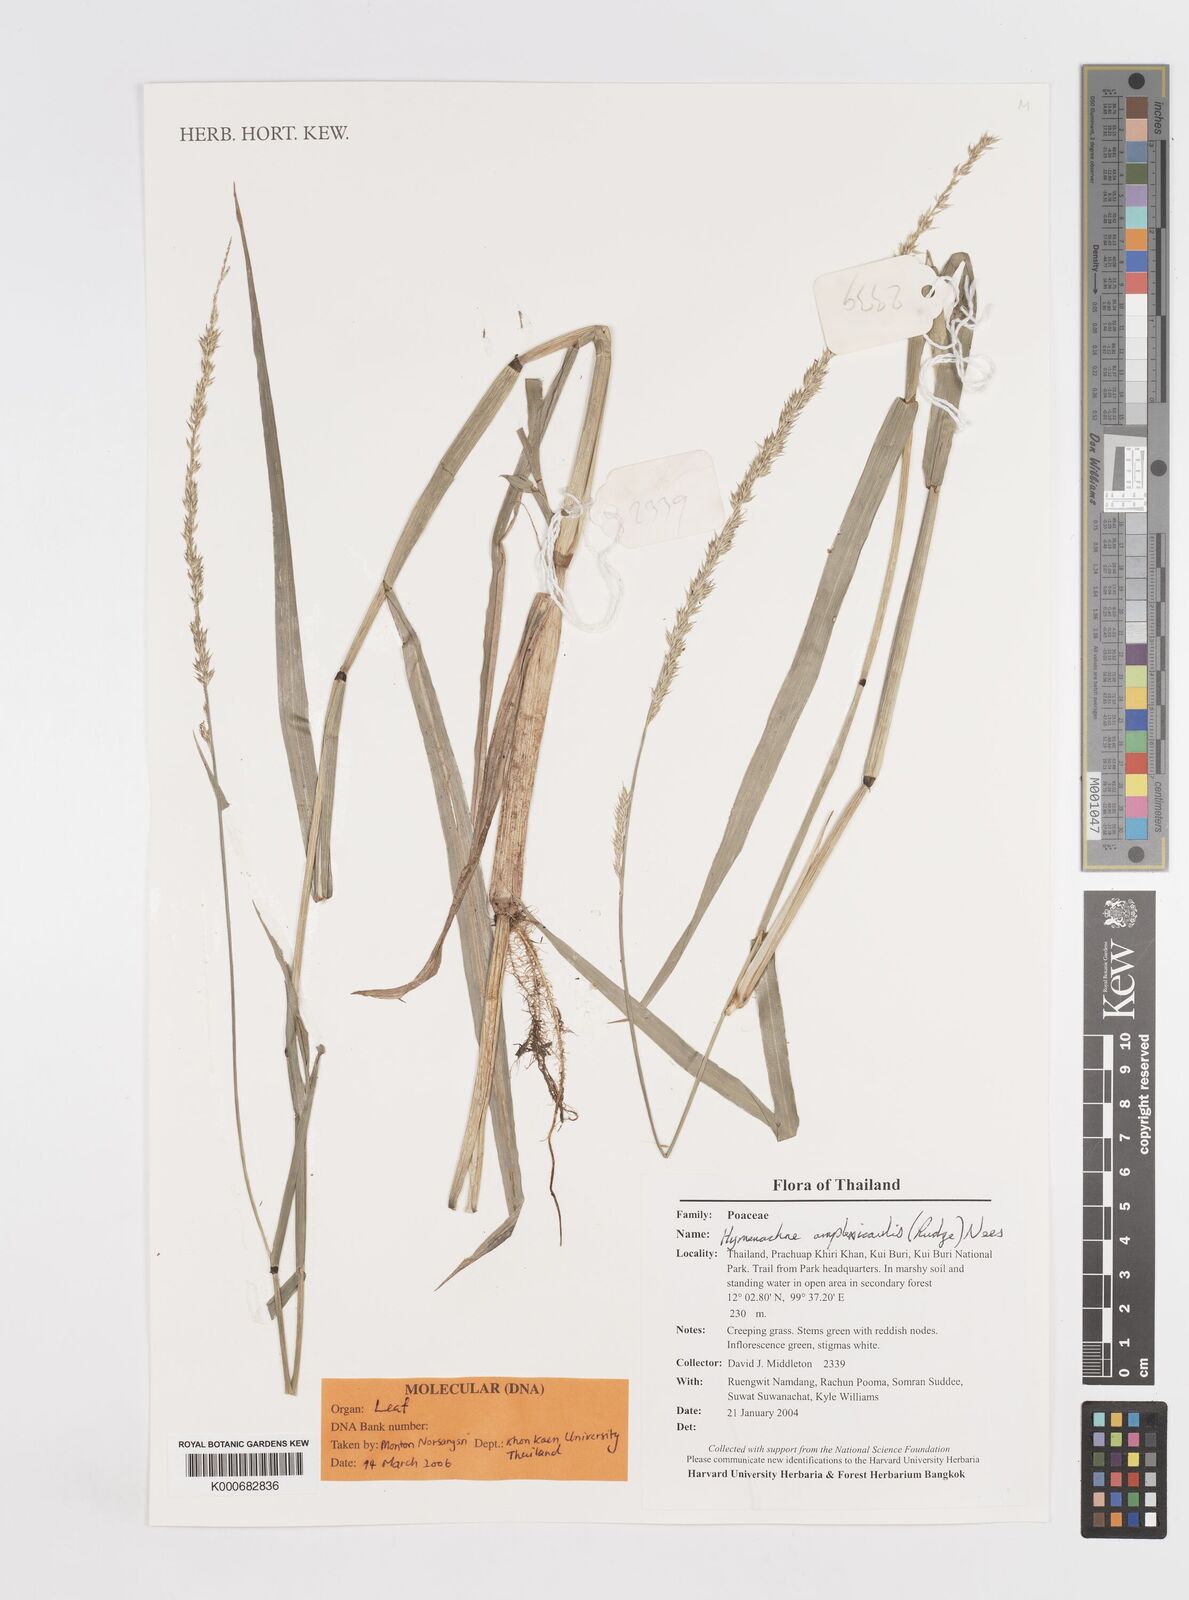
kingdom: Plantae
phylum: Tracheophyta
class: Liliopsida
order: Poales
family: Poaceae
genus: Hymenachne
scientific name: Hymenachne amplexicaulis
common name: Olive hymenachne
